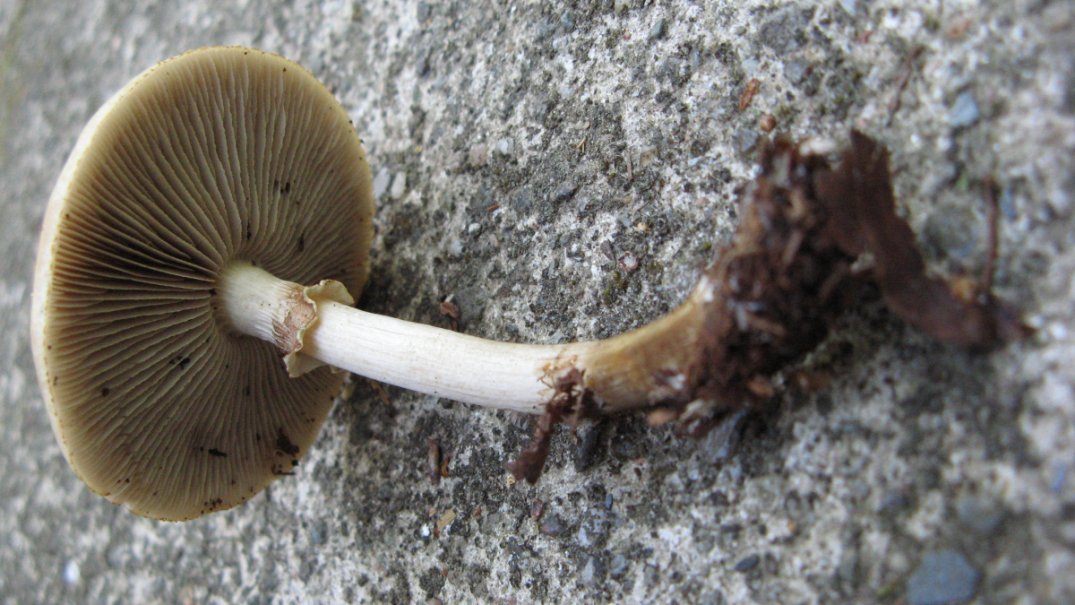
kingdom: Fungi
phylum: Basidiomycota
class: Agaricomycetes
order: Agaricales
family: Strophariaceae
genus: Agrocybe
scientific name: Agrocybe praecox
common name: tidlig agerhat
